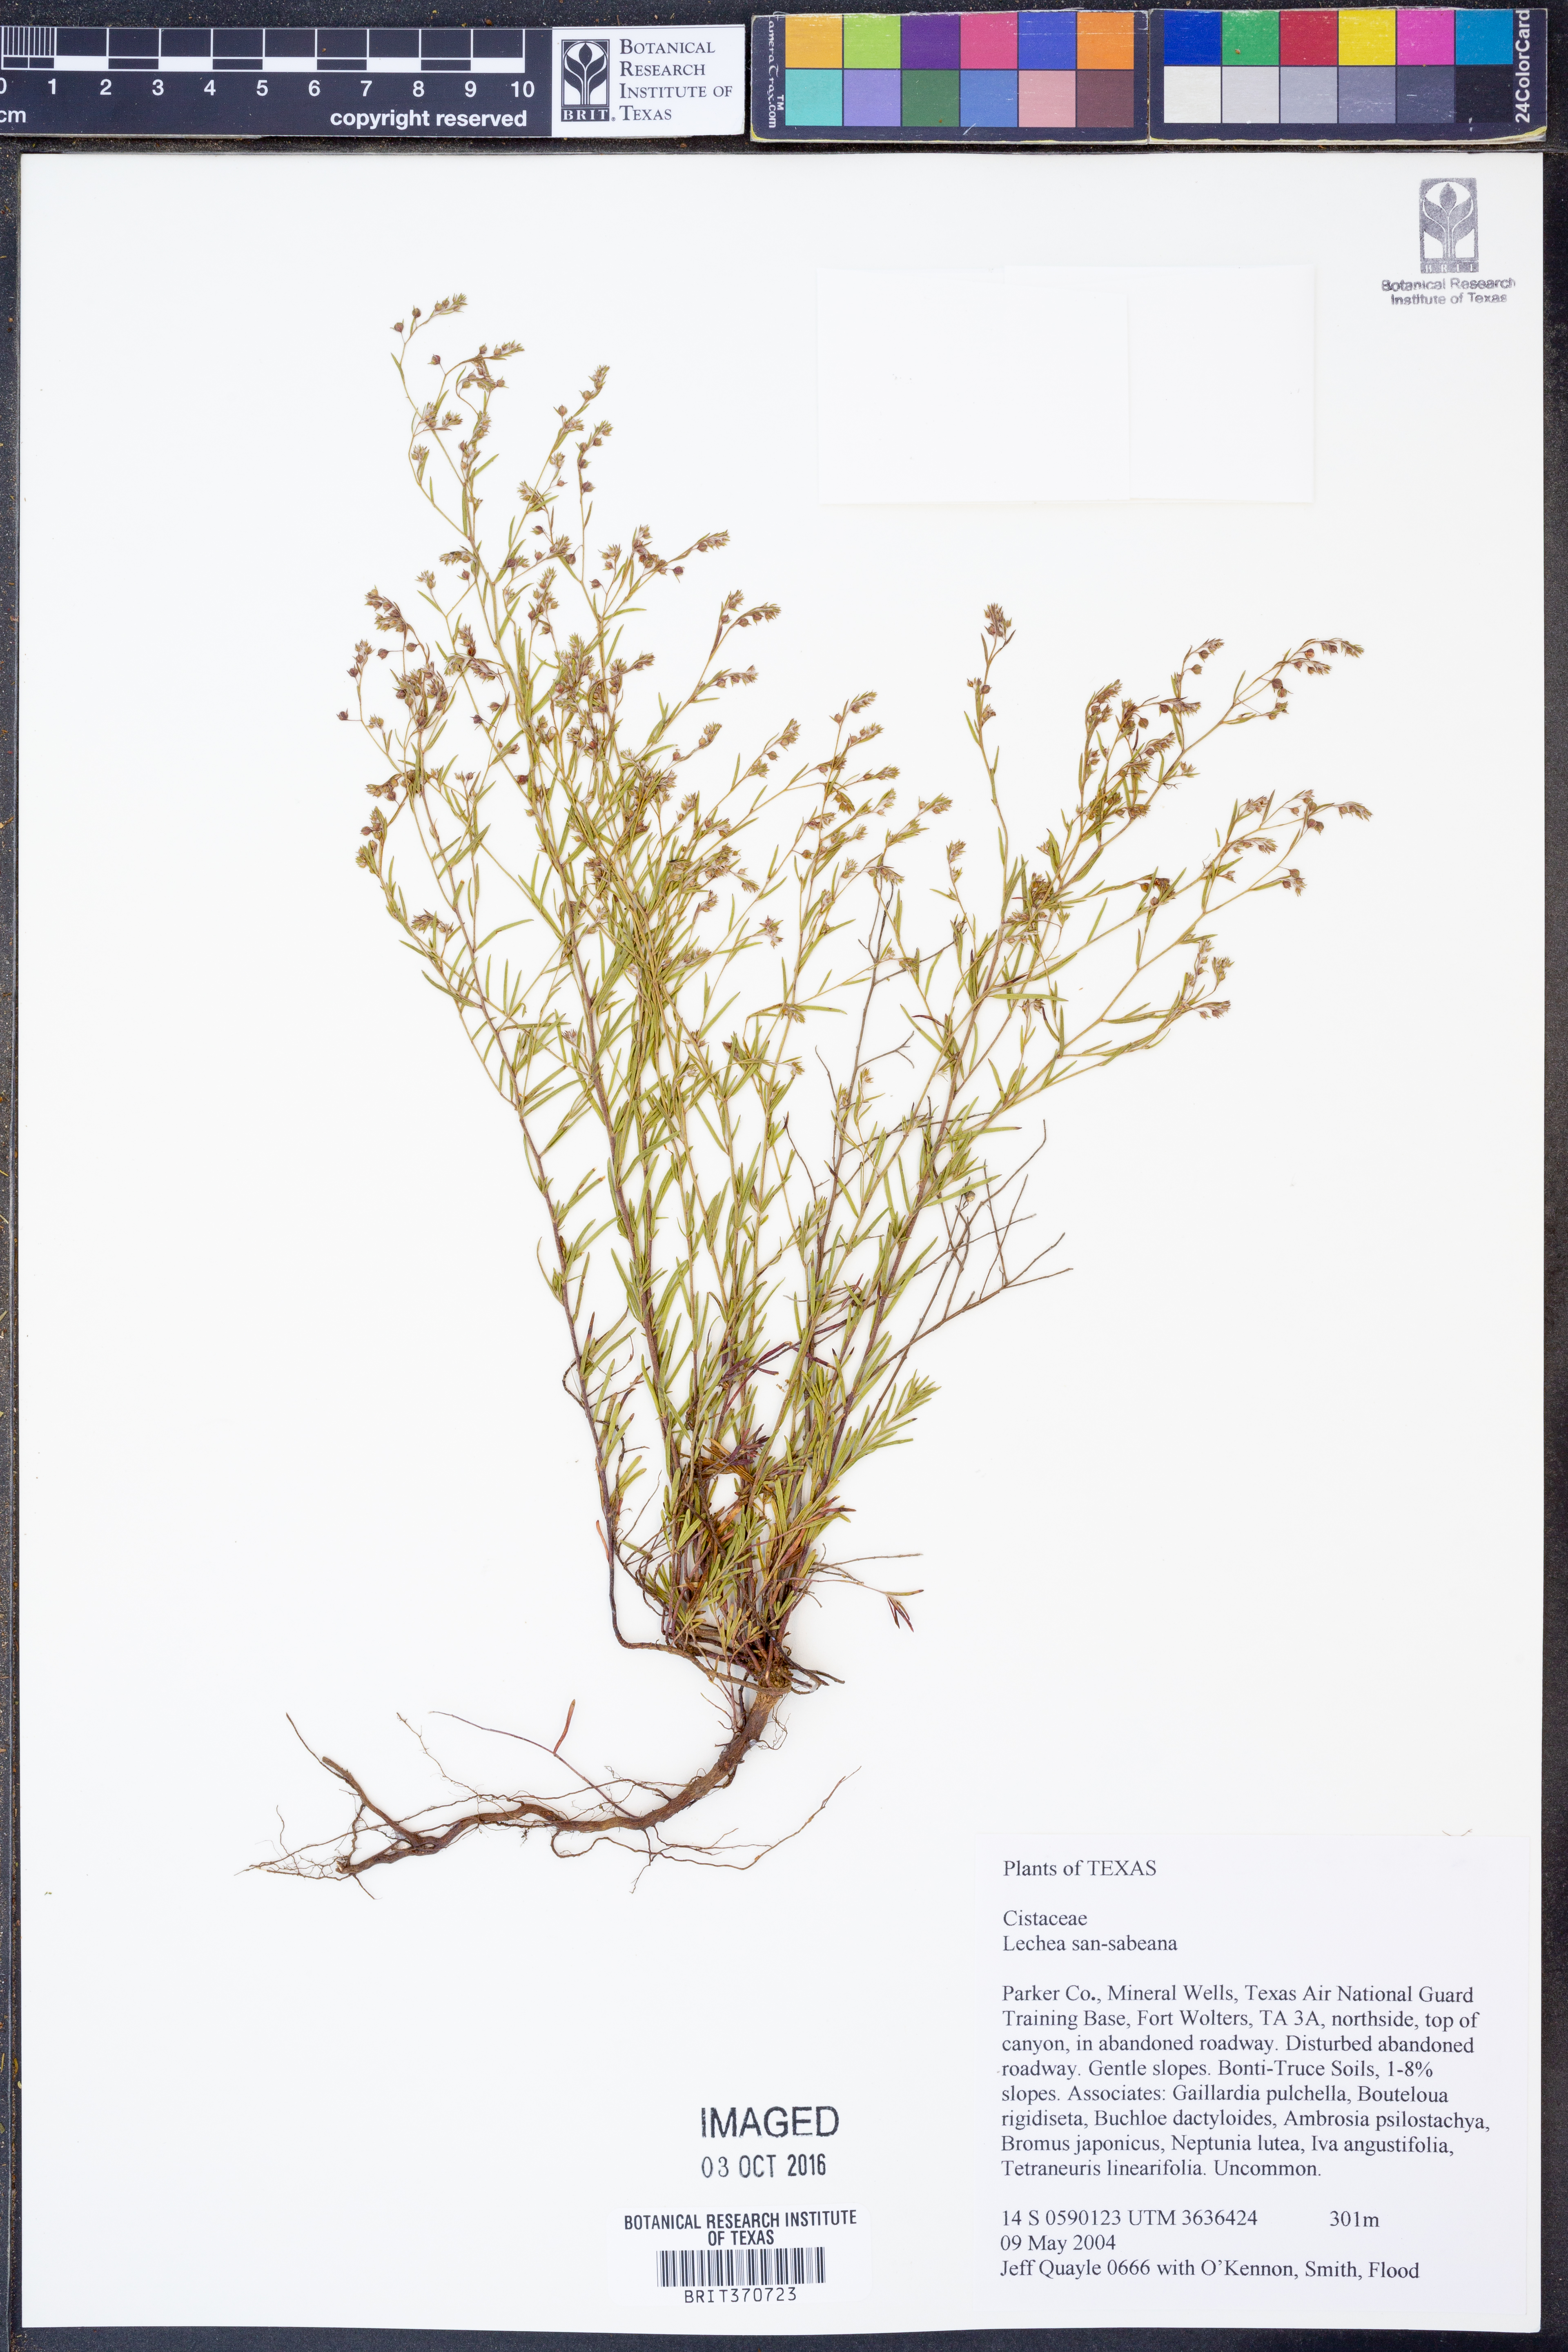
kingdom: Plantae
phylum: Tracheophyta
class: Magnoliopsida
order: Malvales
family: Cistaceae
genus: Lechea
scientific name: Lechea san-sabeana
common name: San saba pinweed
